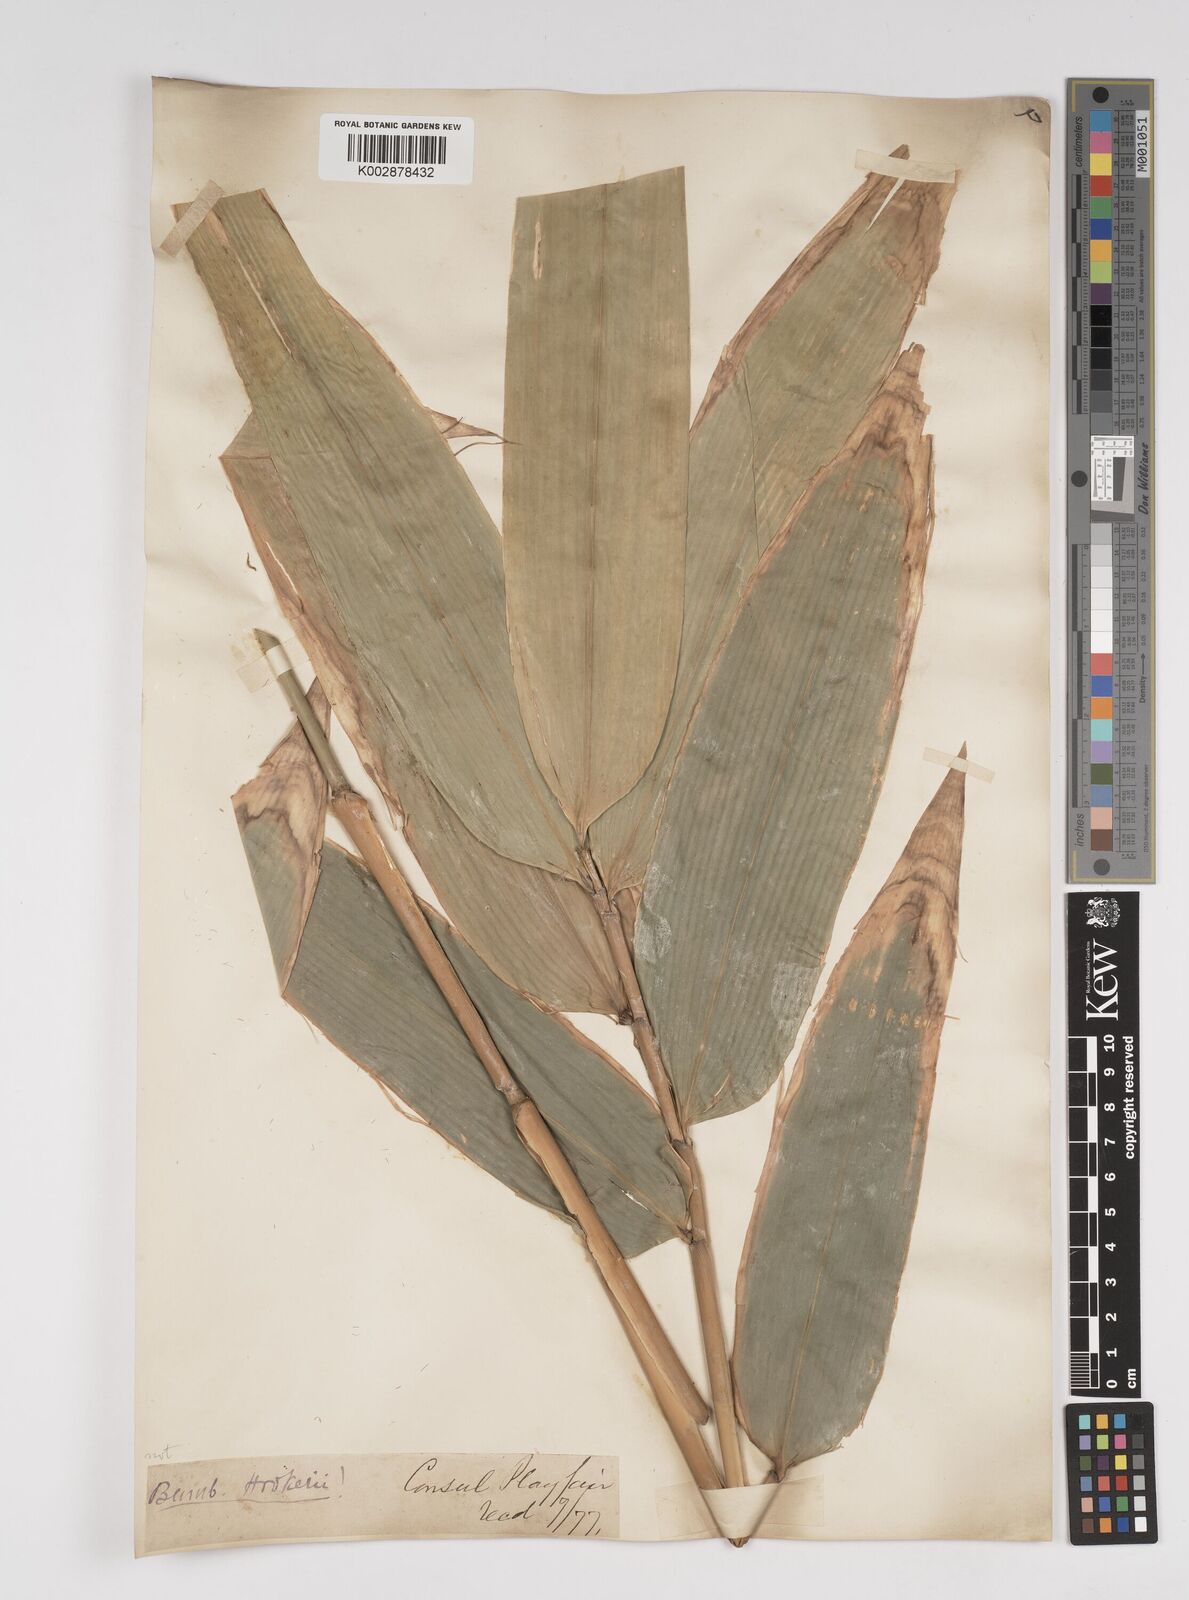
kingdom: Plantae
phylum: Tracheophyta
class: Liliopsida
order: Poales
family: Poaceae
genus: Dendrocalamus
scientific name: Dendrocalamus sikkimensis
